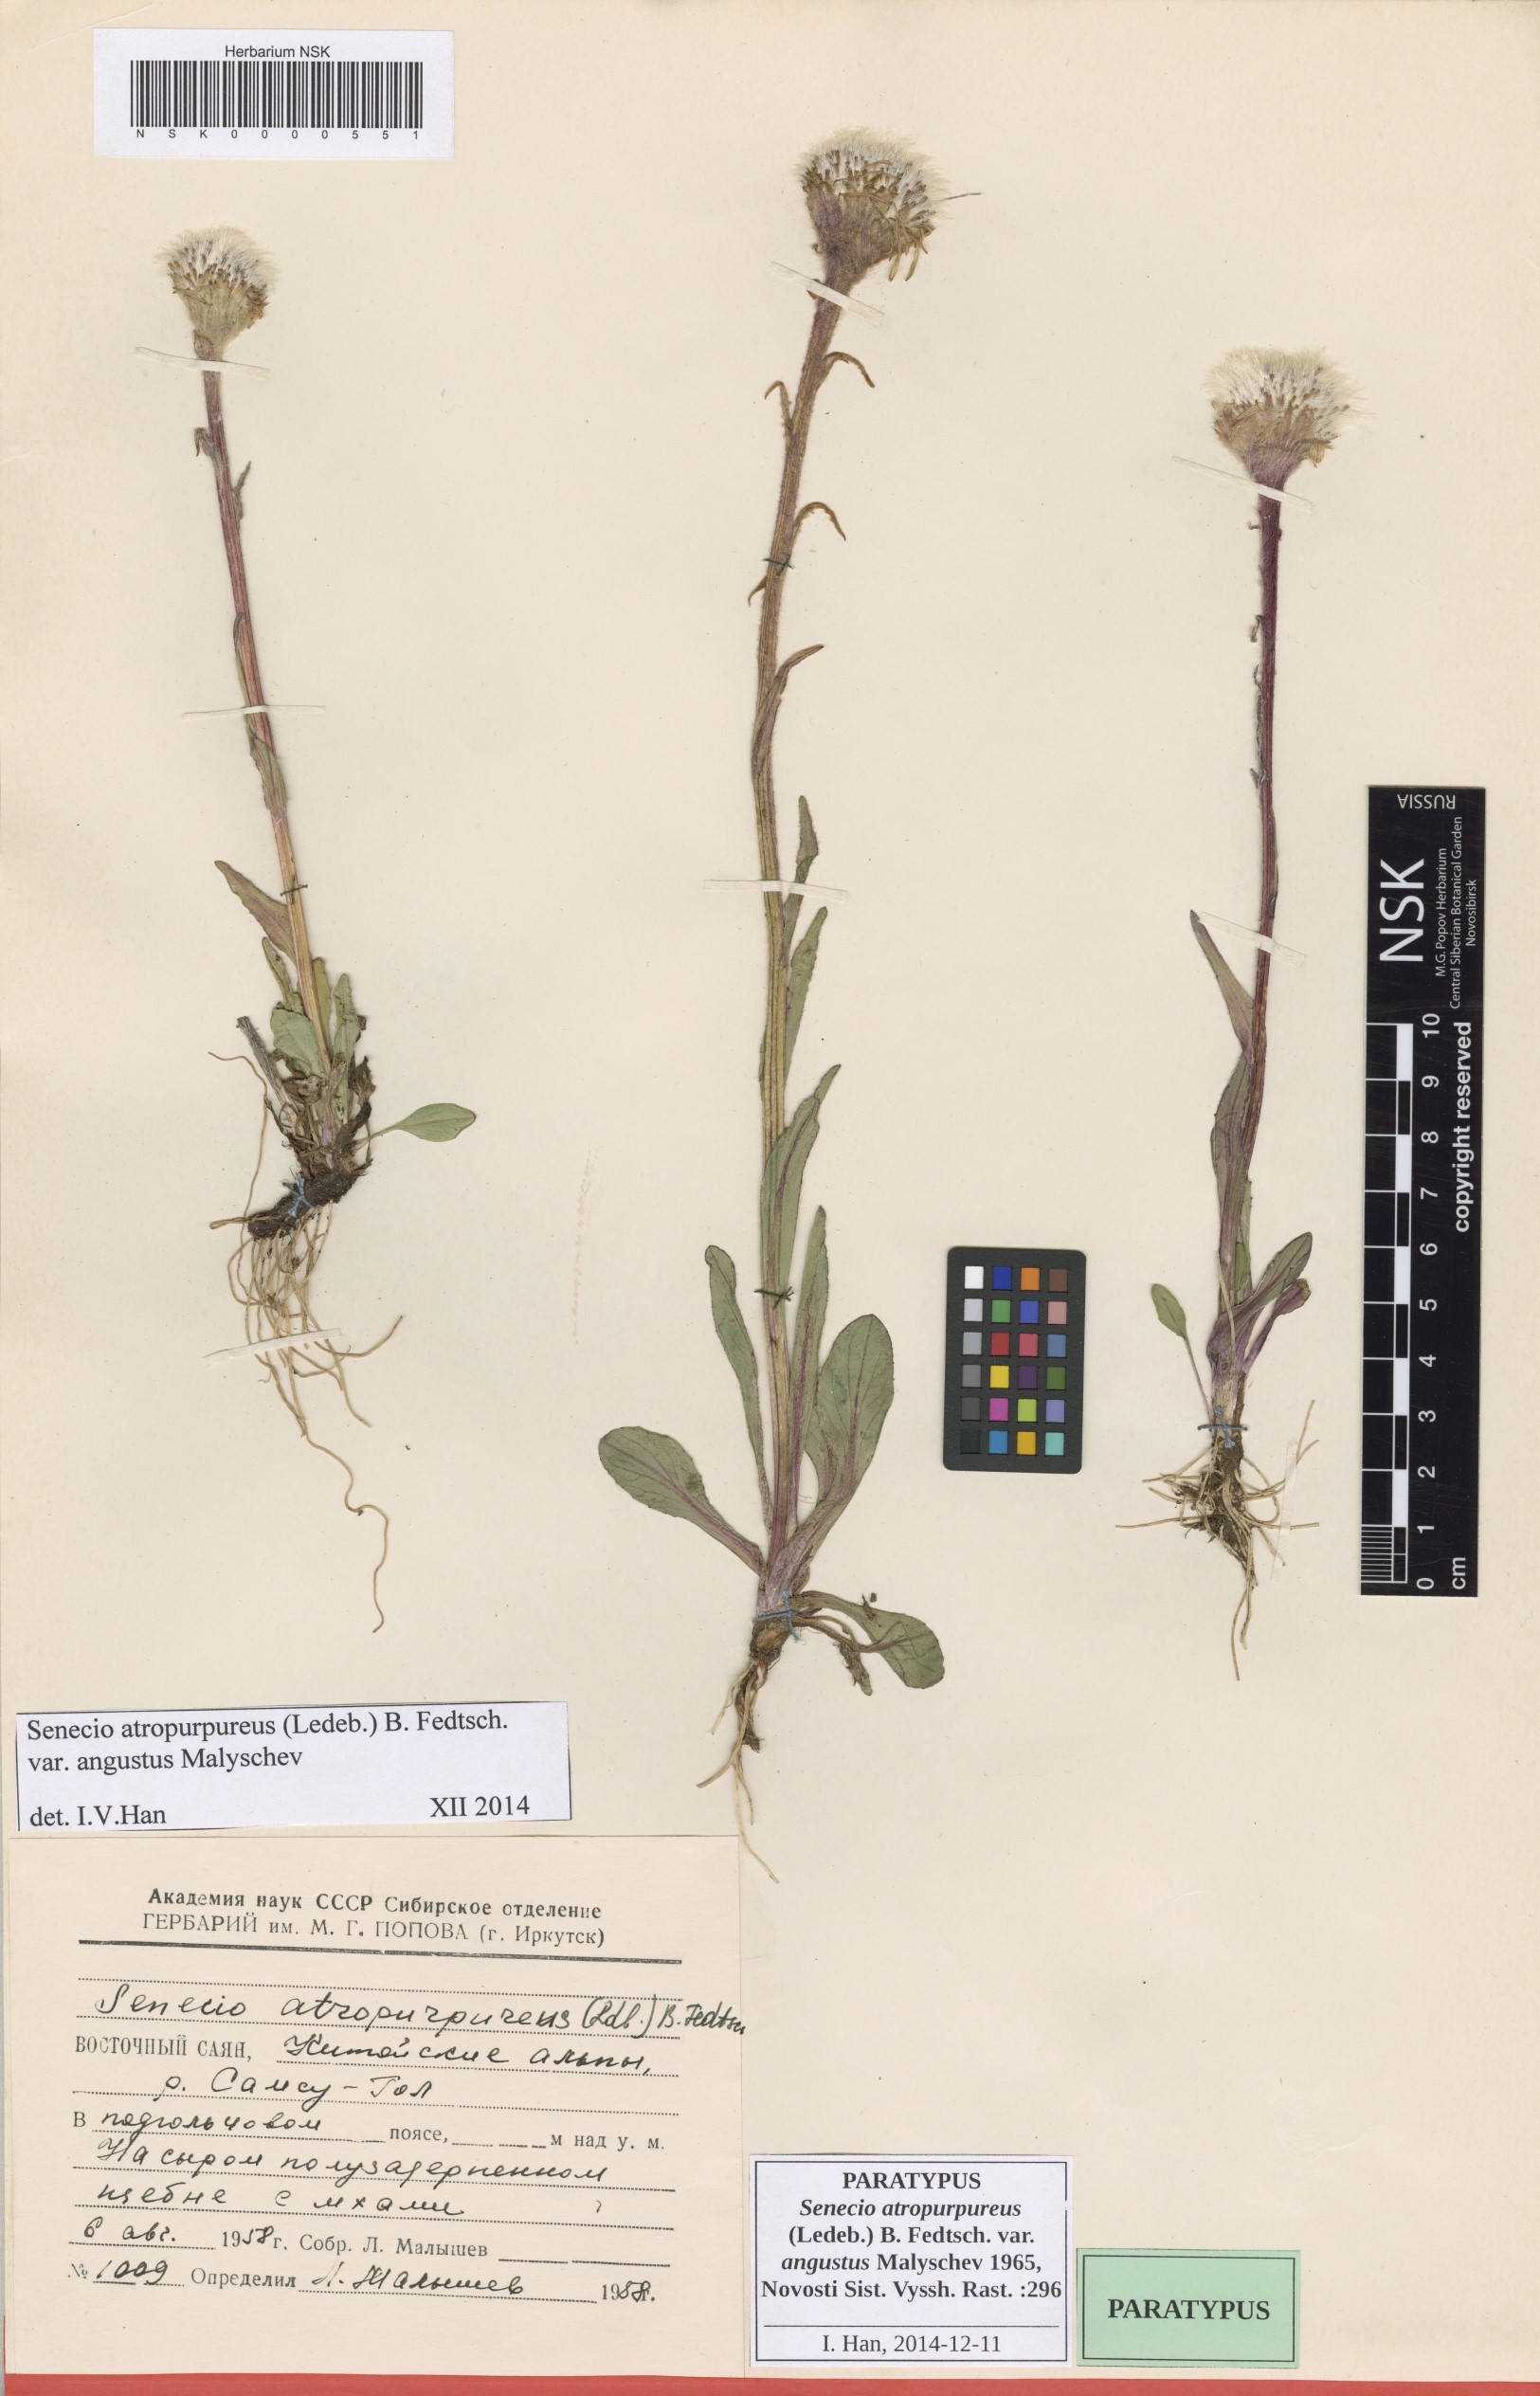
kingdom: Plantae
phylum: Tracheophyta
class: Magnoliopsida
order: Asterales
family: Asteraceae
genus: Tephroseris
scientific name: Tephroseris integrifolia
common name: Field fleawort
